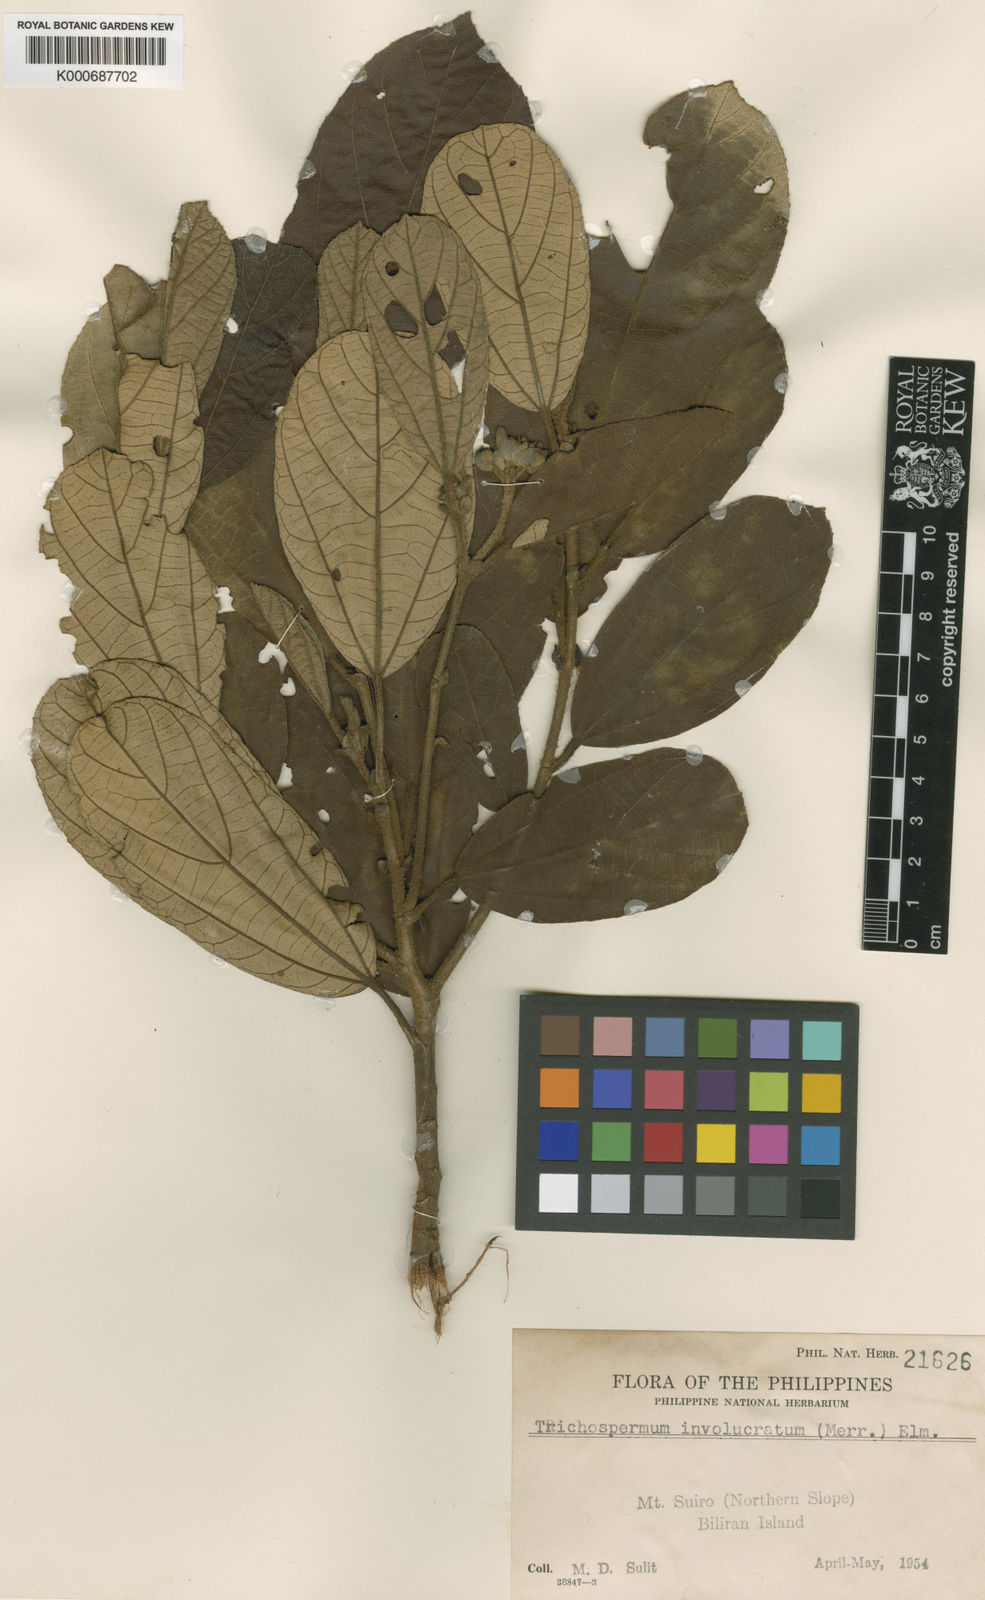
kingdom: Plantae
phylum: Tracheophyta
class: Magnoliopsida
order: Malvales
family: Malvaceae
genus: Trichospermum
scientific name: Trichospermum involucratum
